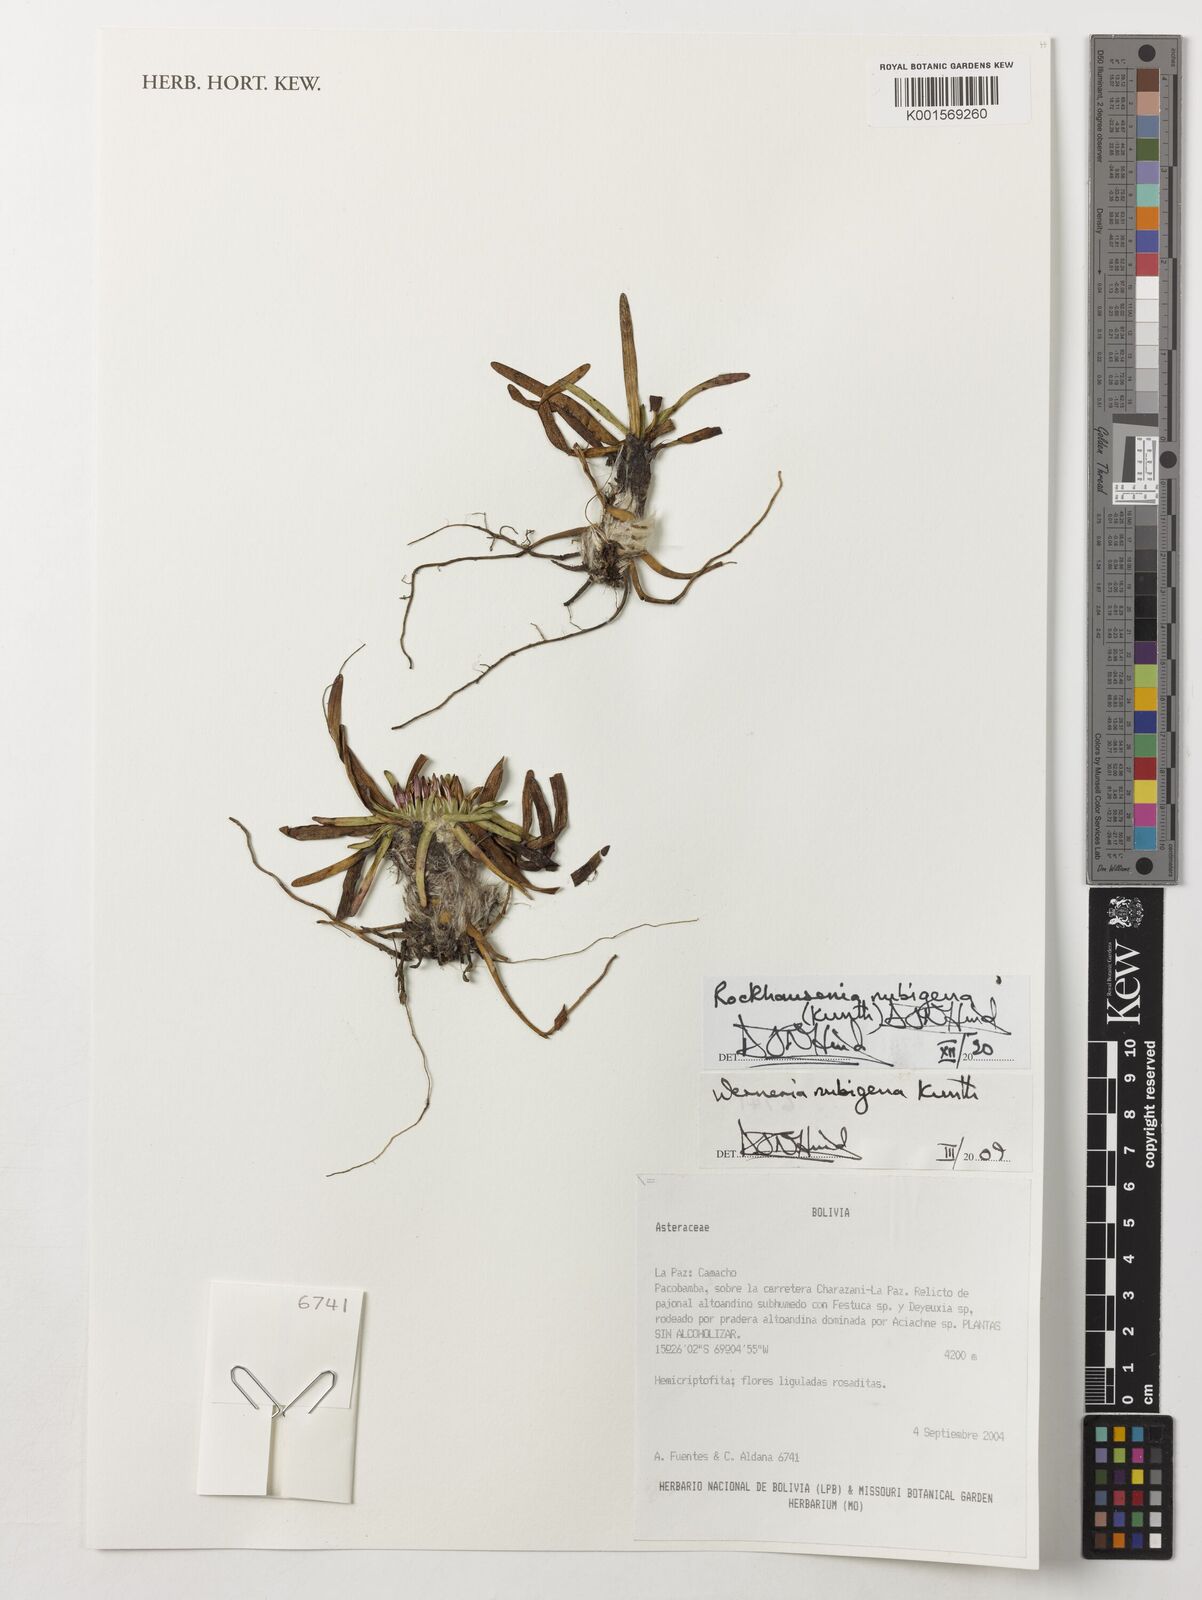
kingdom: Plantae
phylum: Tracheophyta
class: Magnoliopsida
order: Asterales
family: Asteraceae
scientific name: Asteraceae
